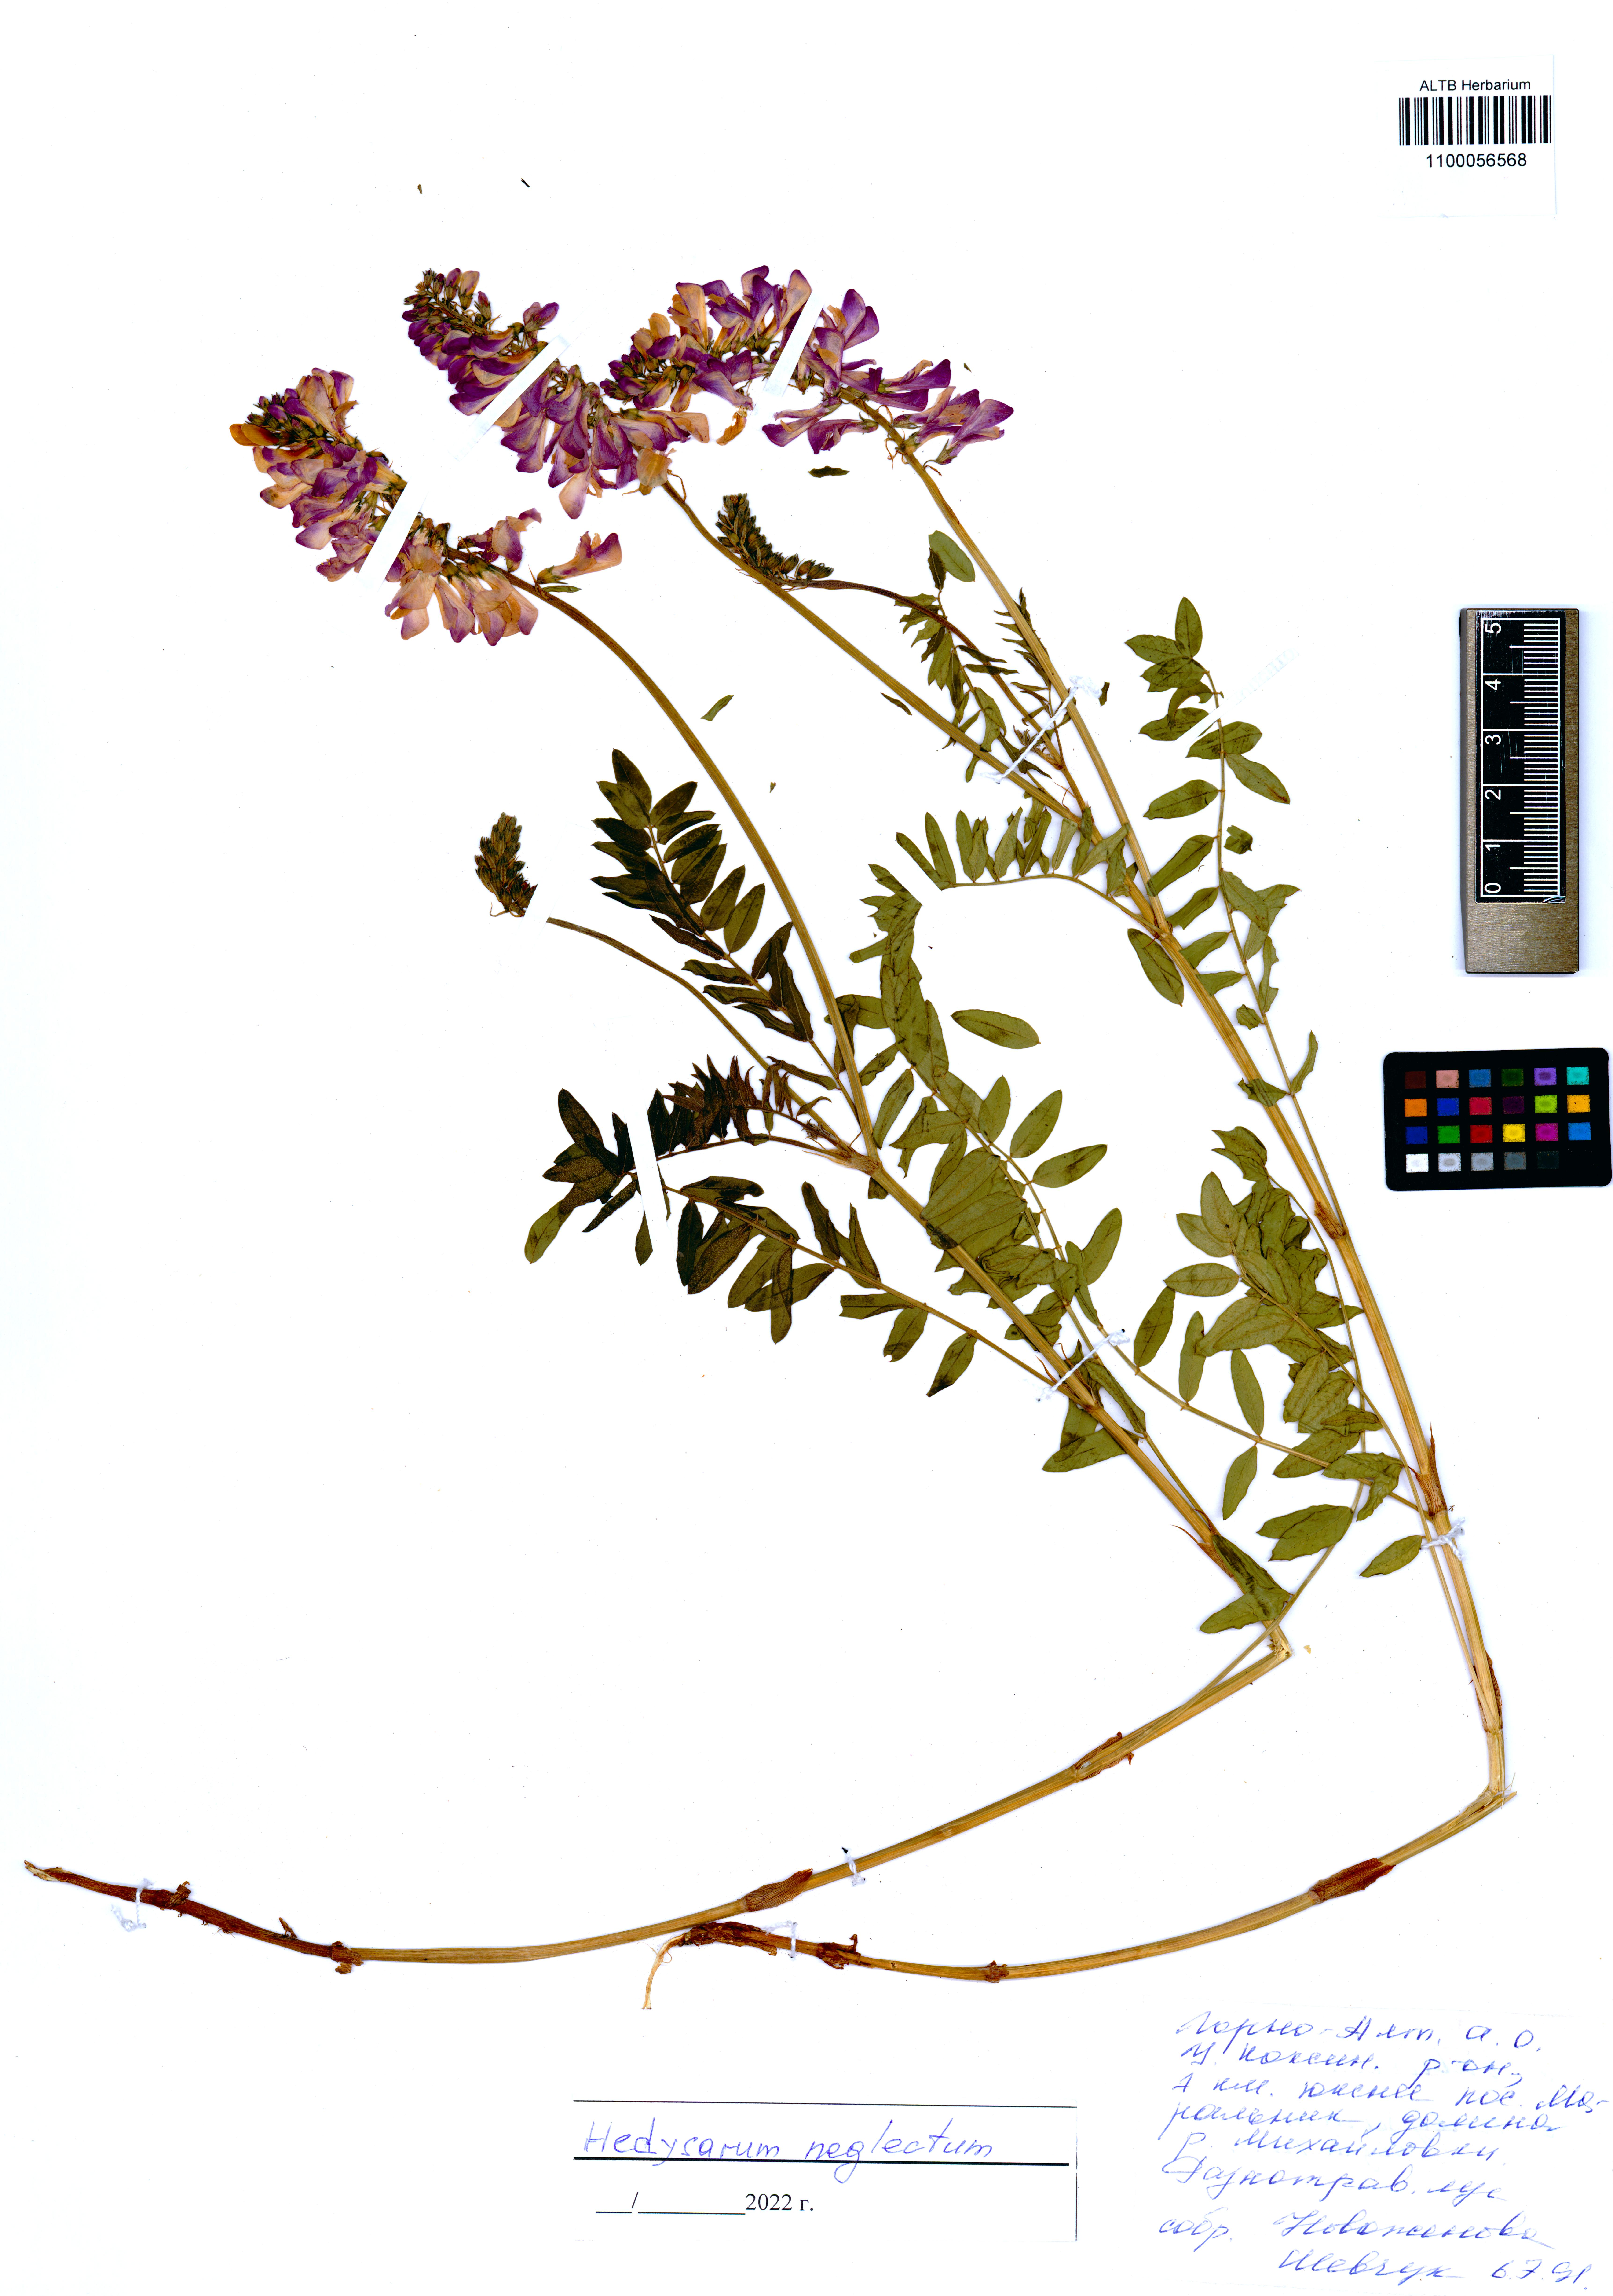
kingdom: Plantae
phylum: Tracheophyta
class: Magnoliopsida
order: Fabales
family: Fabaceae
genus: Hedysarum
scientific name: Hedysarum neglectum
